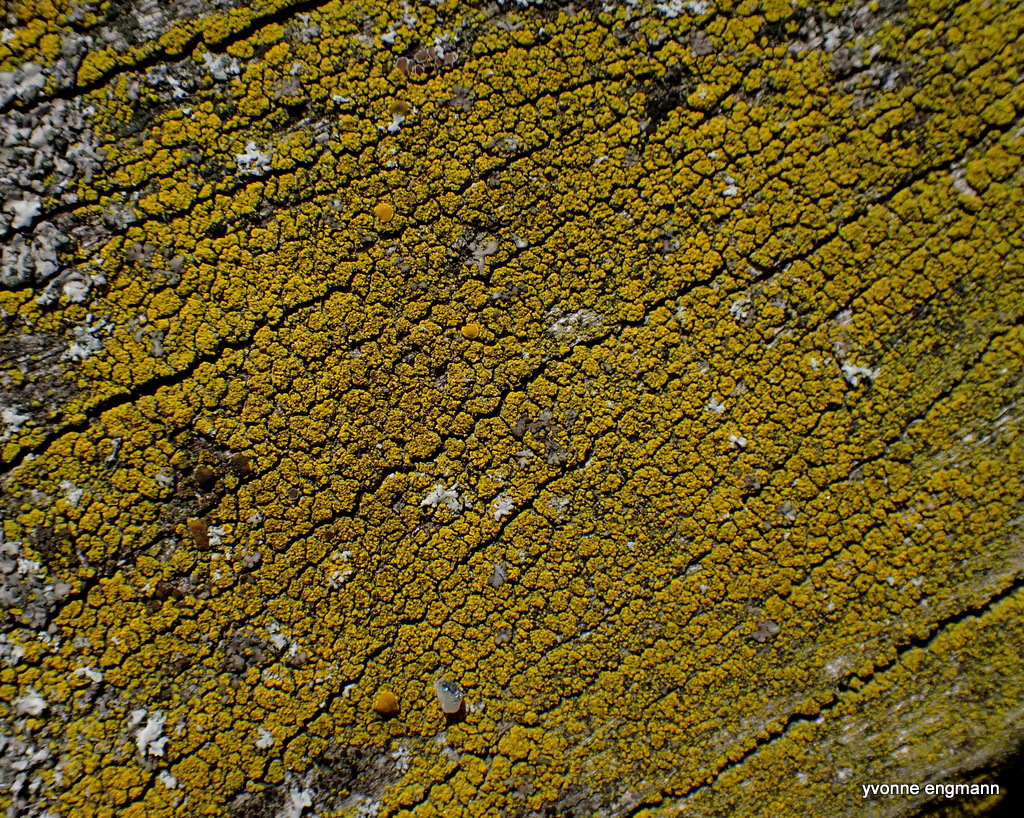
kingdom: Fungi
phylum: Ascomycota
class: Candelariomycetes
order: Candelariales
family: Candelariaceae
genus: Candelariella
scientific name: Candelariella vitellina
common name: almindelig æggeblommelav
